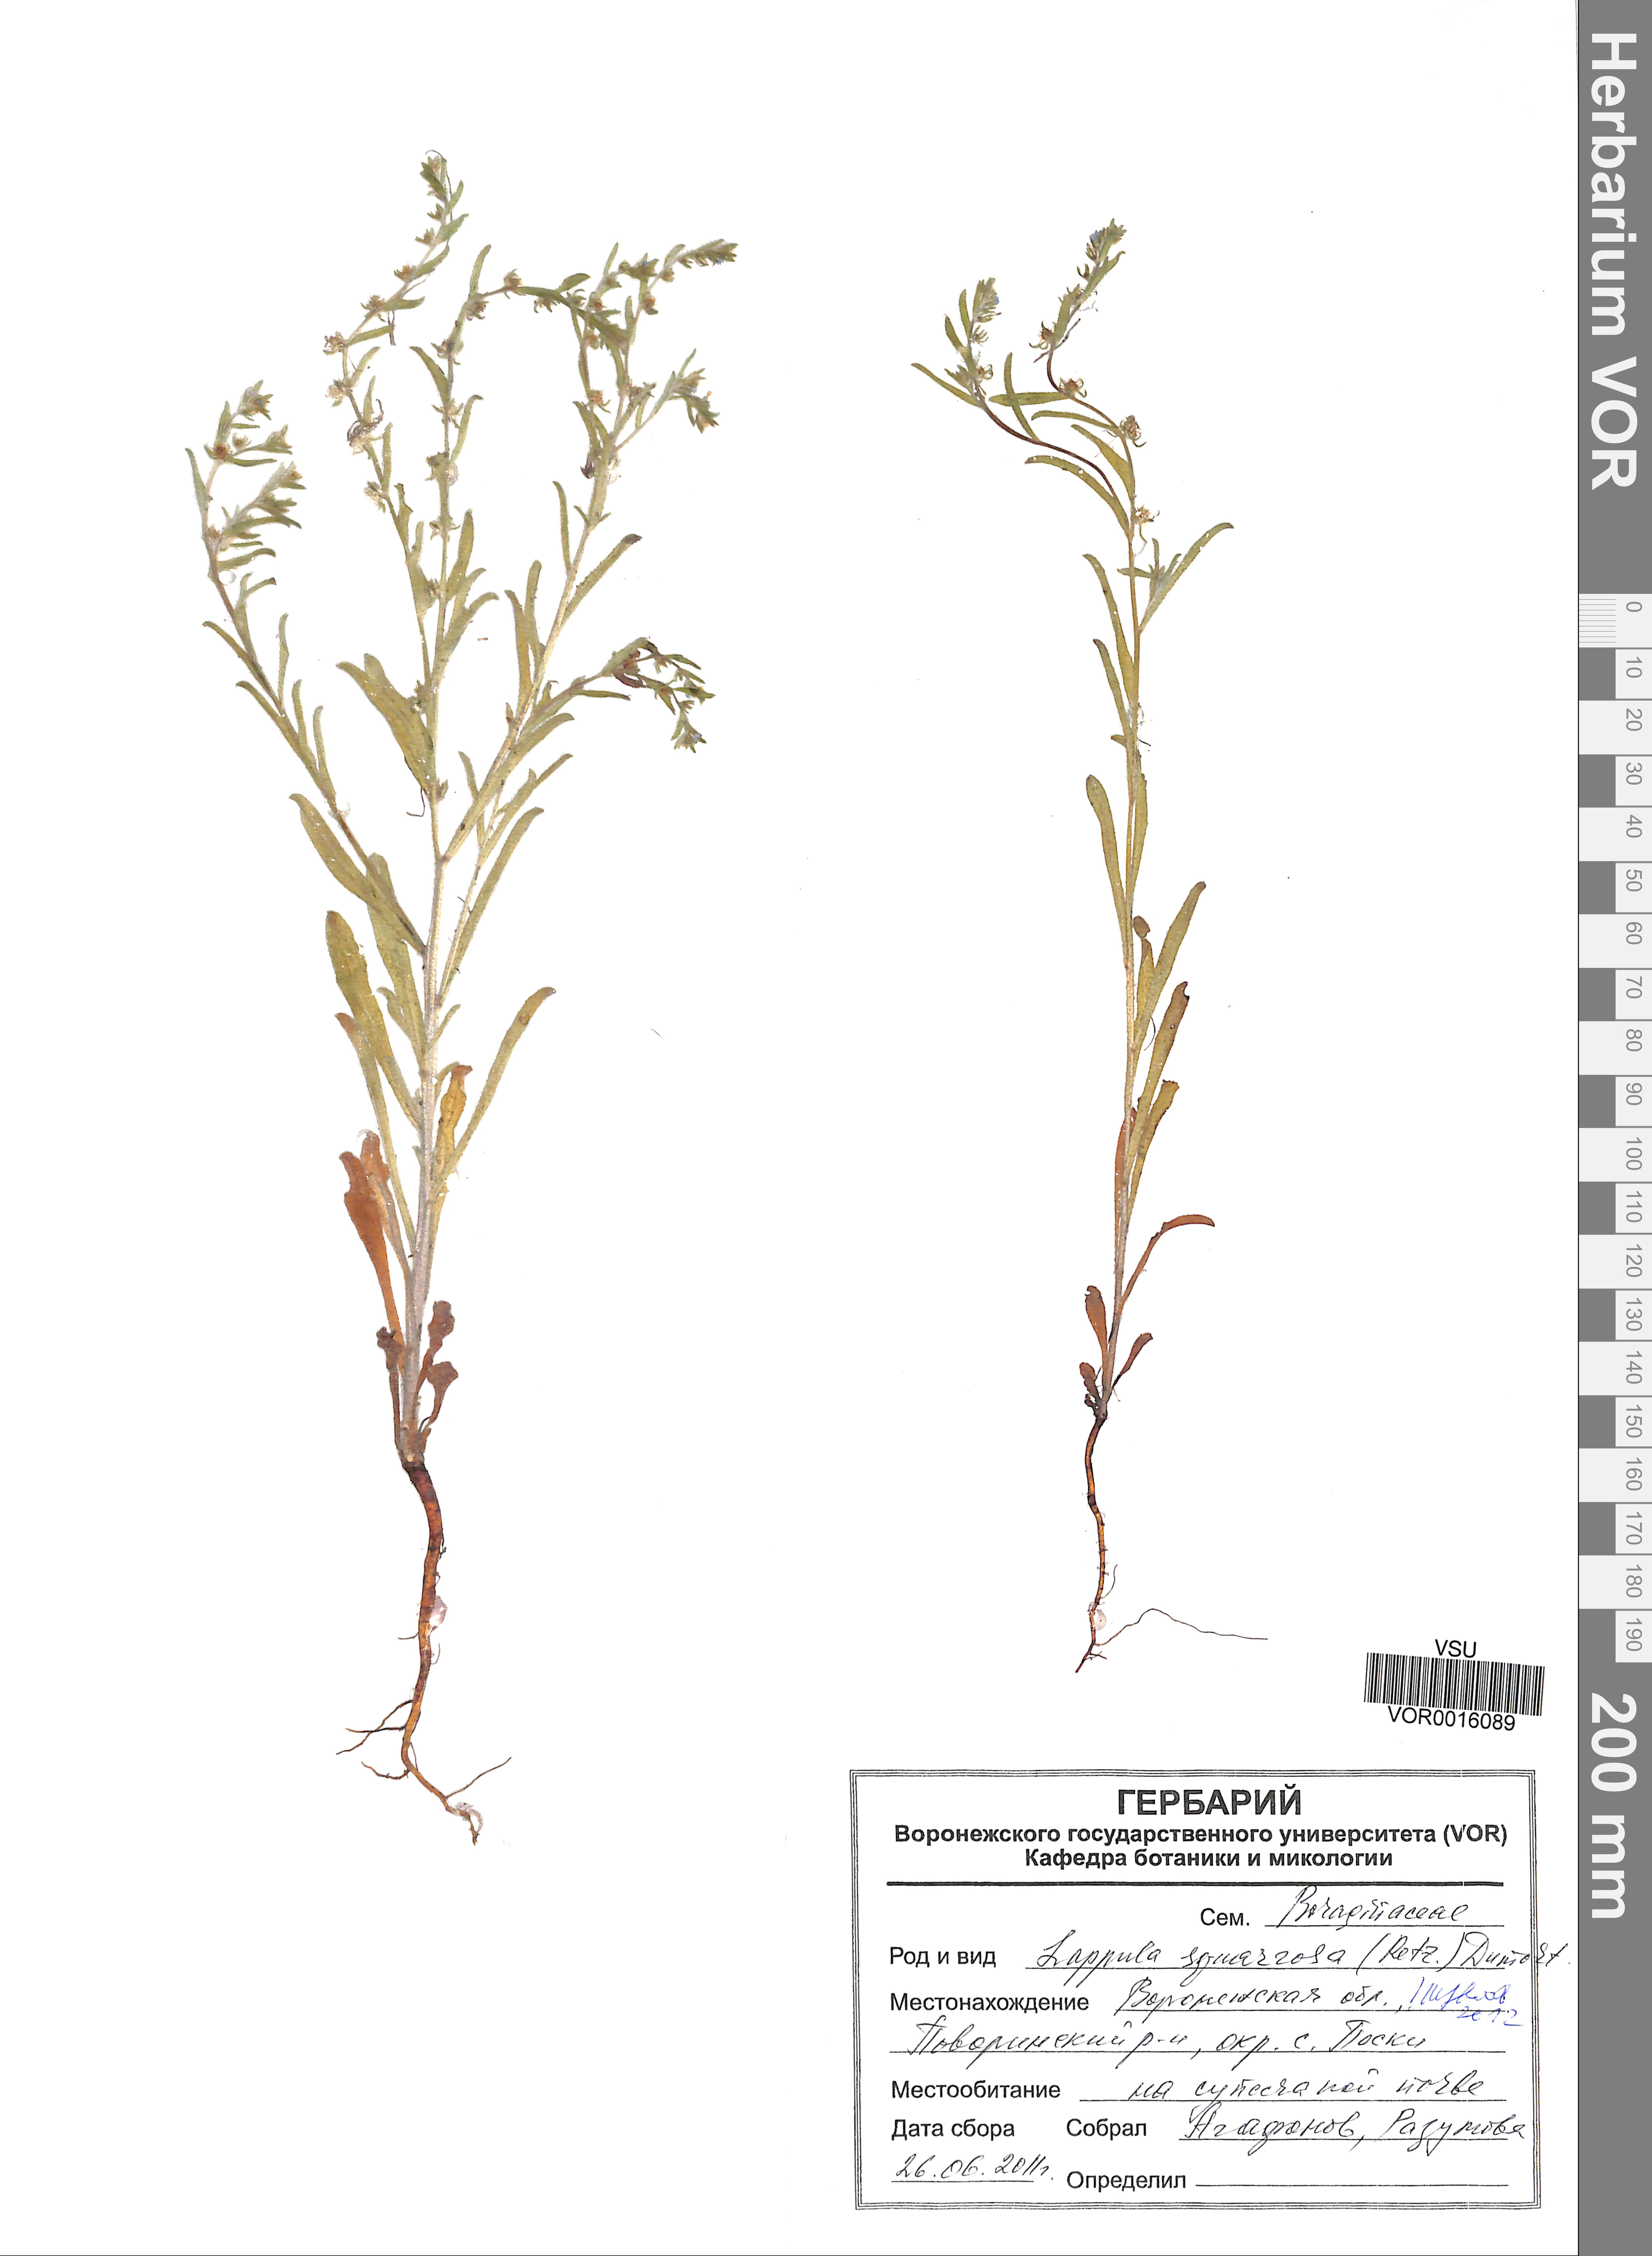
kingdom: Plantae
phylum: Tracheophyta
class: Magnoliopsida
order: Boraginales
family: Boraginaceae
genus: Lappula
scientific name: Lappula squarrosa
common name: European stickseed
